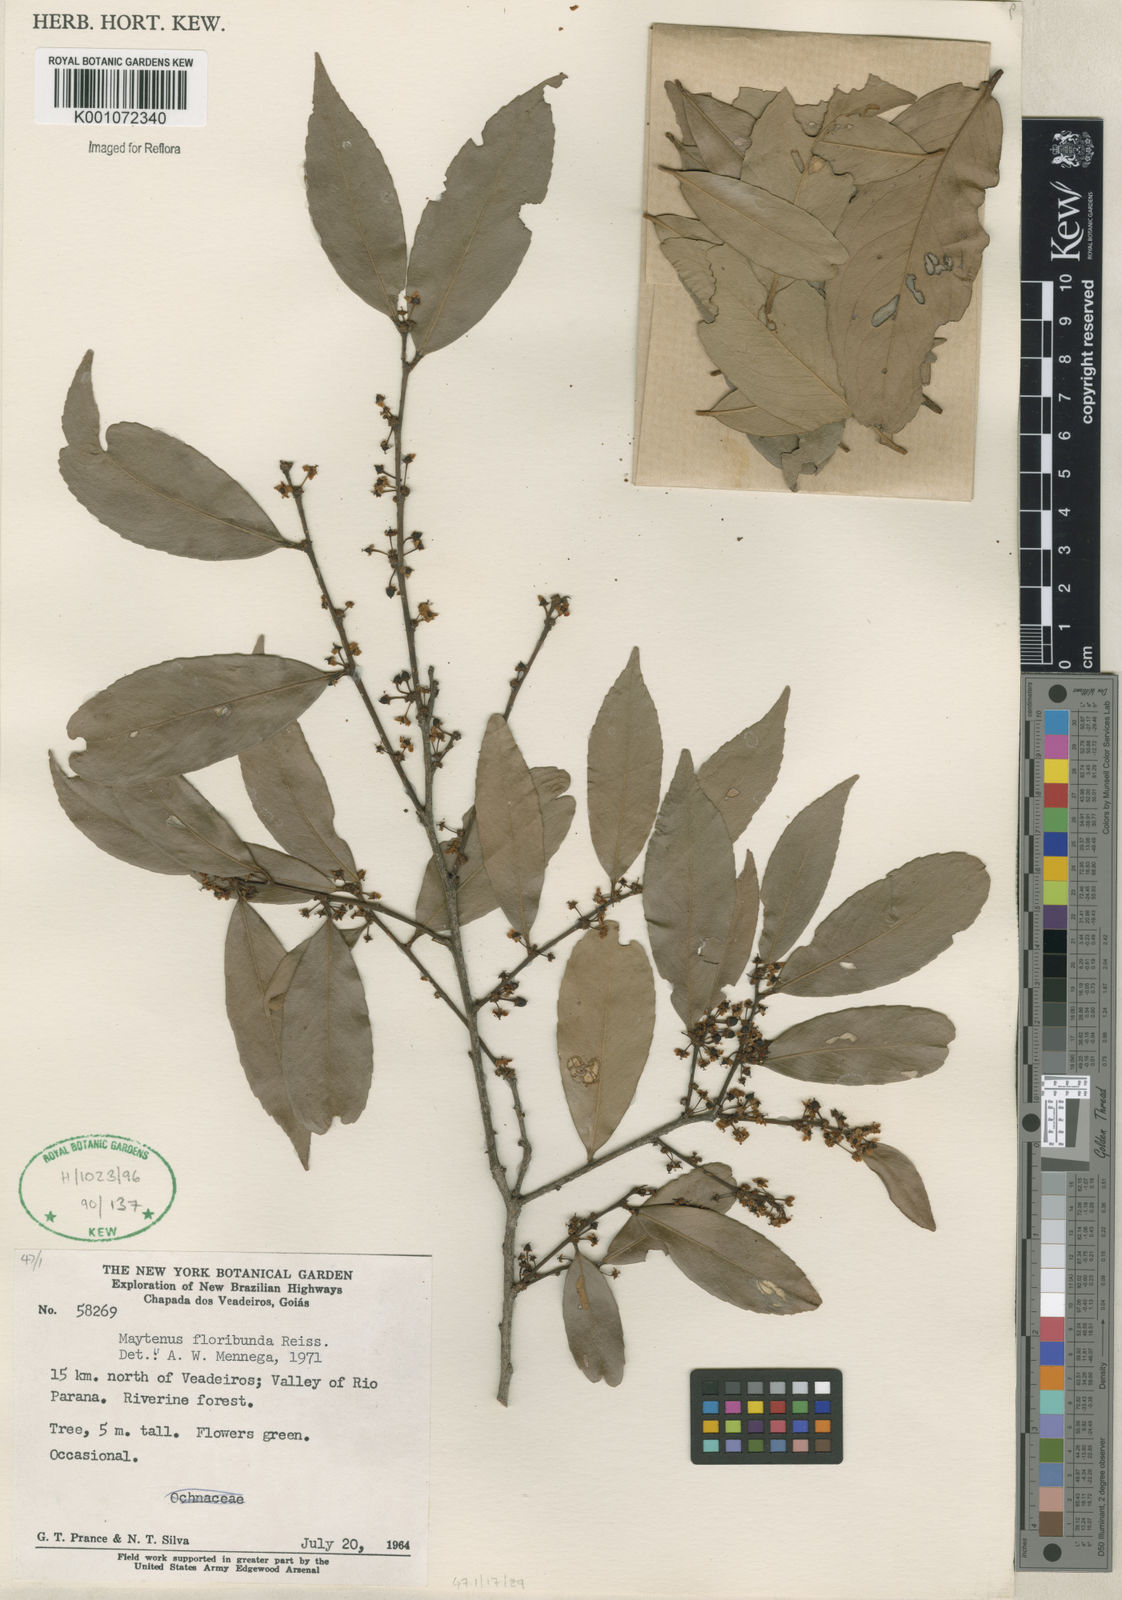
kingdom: Plantae
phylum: Tracheophyta
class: Magnoliopsida
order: Celastrales
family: Celastraceae
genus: Monteverdia
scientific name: Monteverdia floribunda
